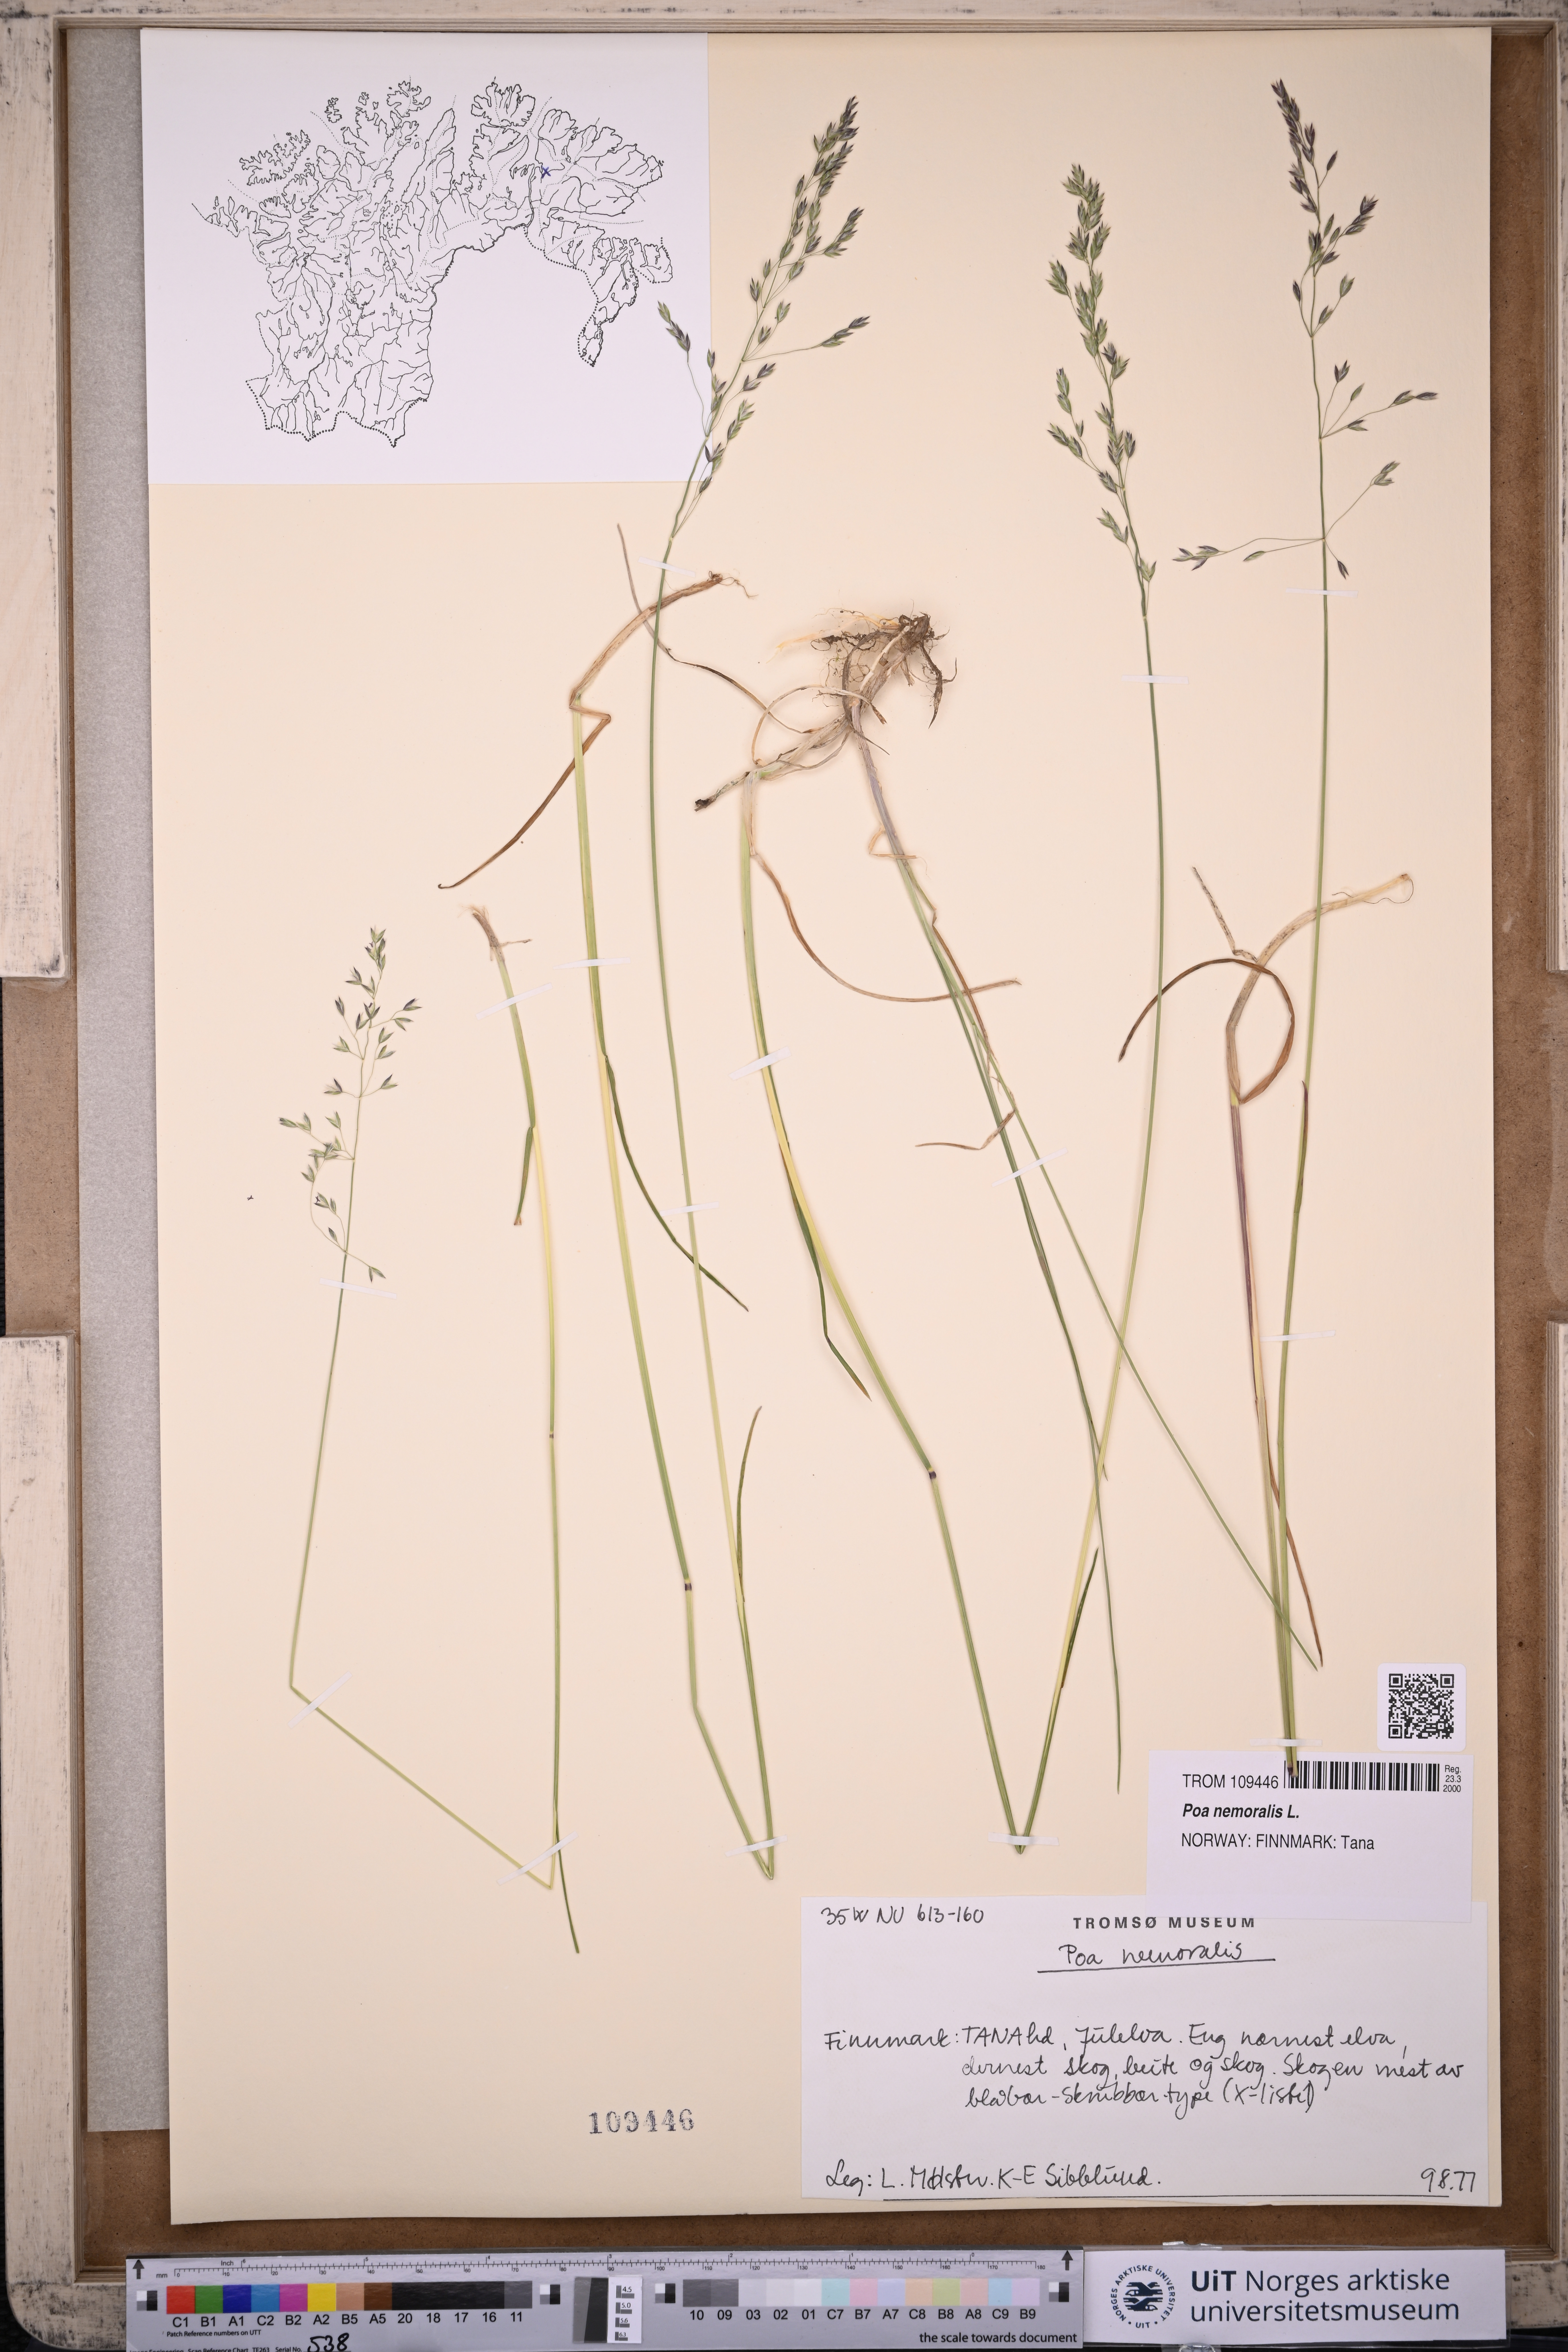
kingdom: Plantae
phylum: Tracheophyta
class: Liliopsida
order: Poales
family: Poaceae
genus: Poa
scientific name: Poa nemoralis
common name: Wood bluegrass
